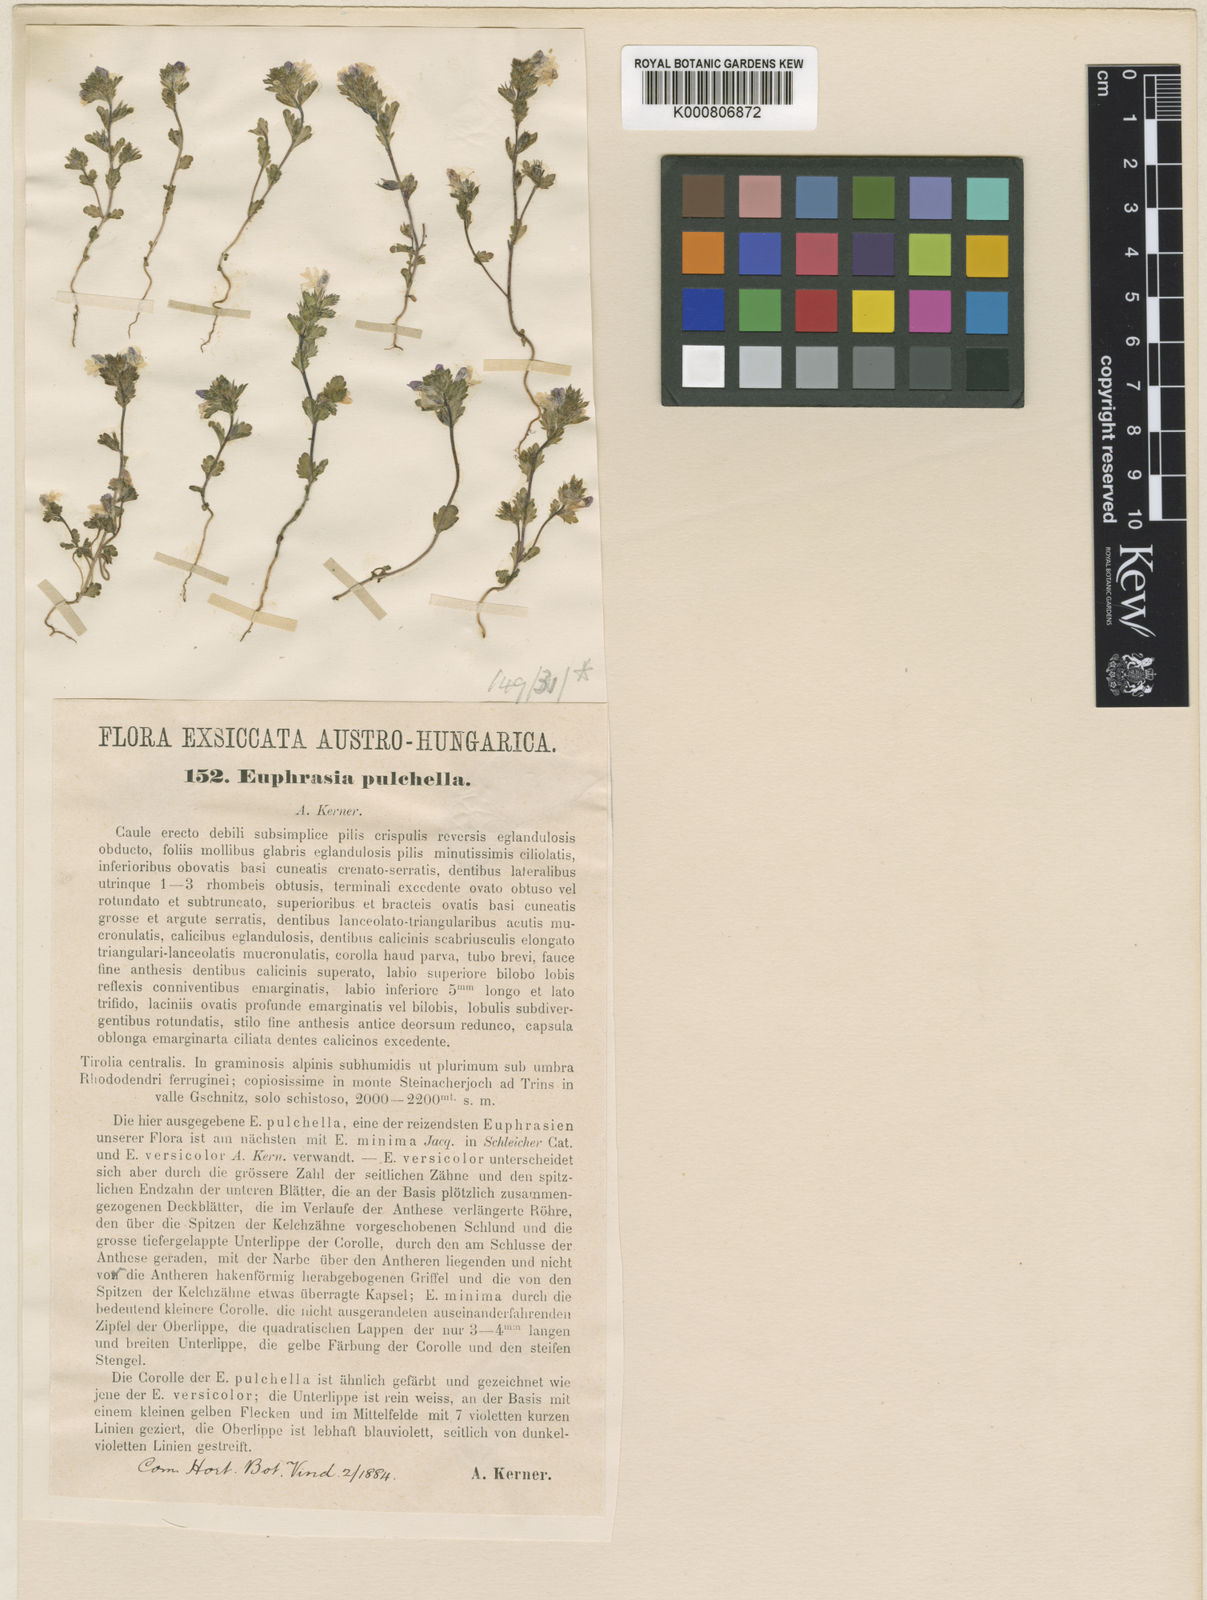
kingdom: Plantae
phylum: Tracheophyta
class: Magnoliopsida
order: Lamiales
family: Orobanchaceae
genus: Euphrasia
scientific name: Euphrasia pulchella
